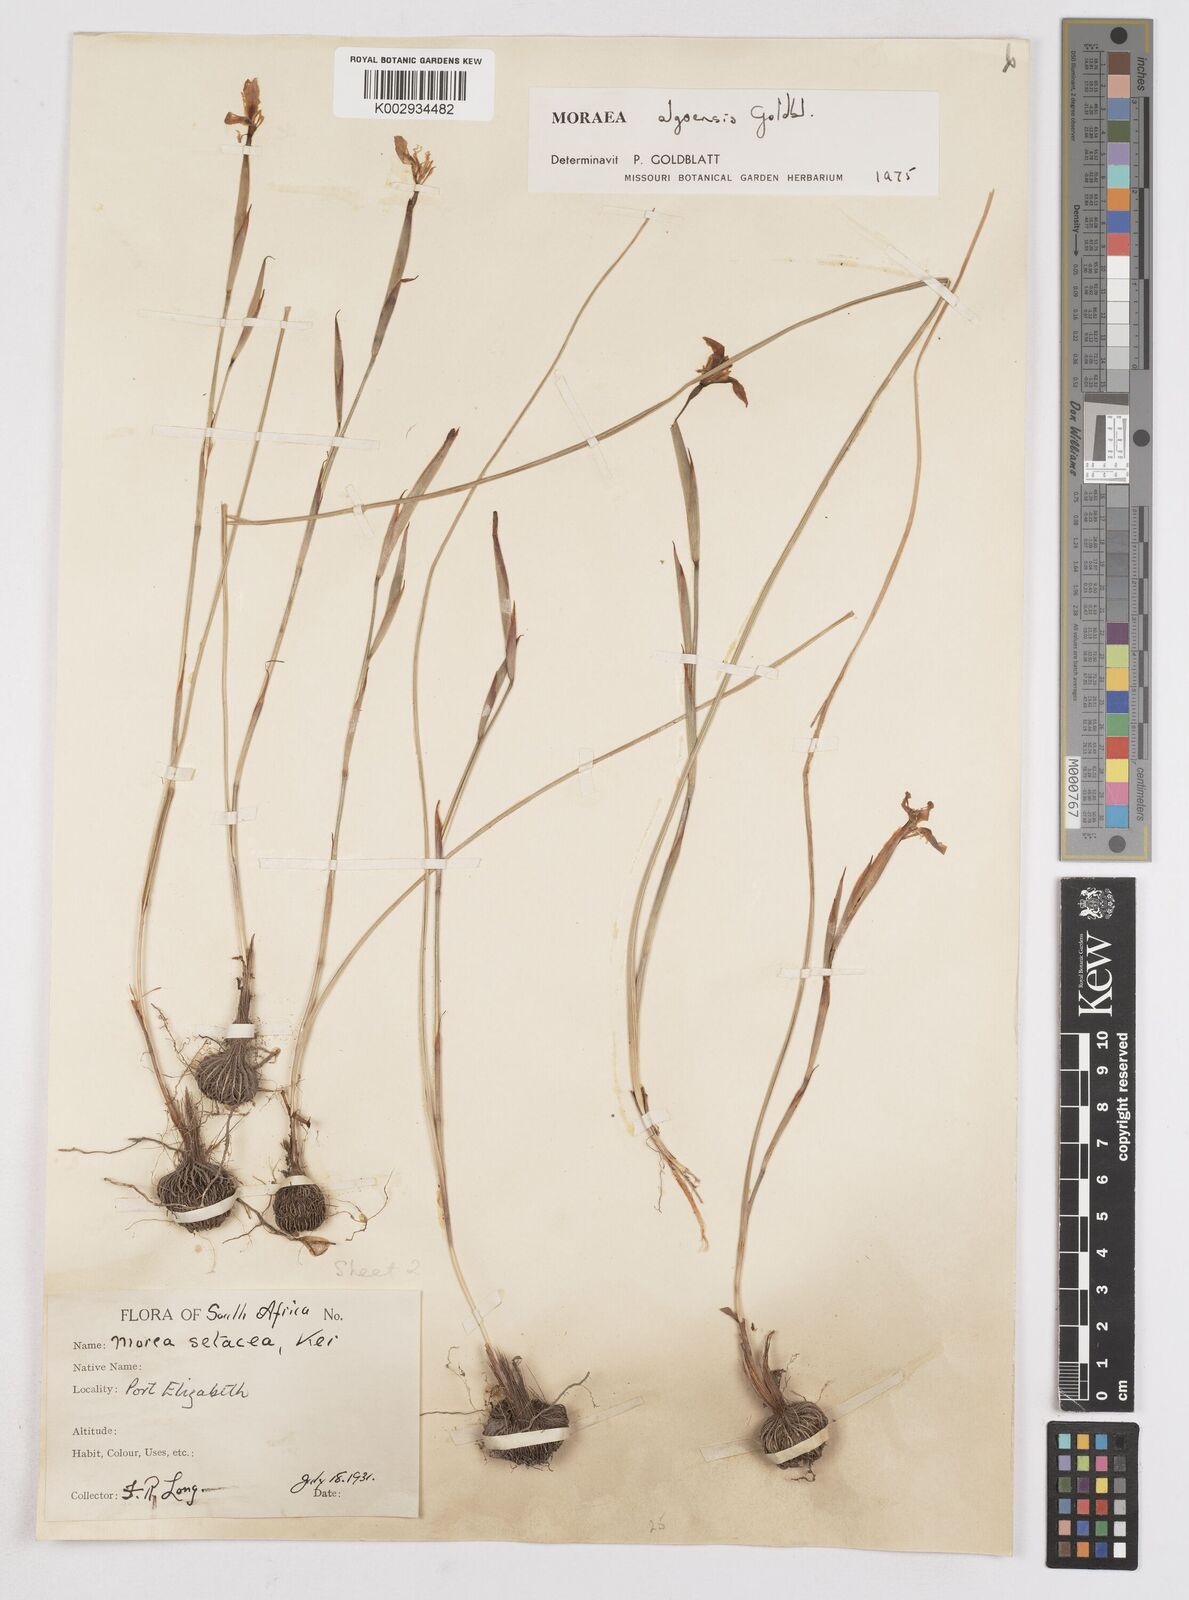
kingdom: Plantae
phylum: Tracheophyta
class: Liliopsida
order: Asparagales
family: Iridaceae
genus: Moraea
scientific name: Moraea algoensis
